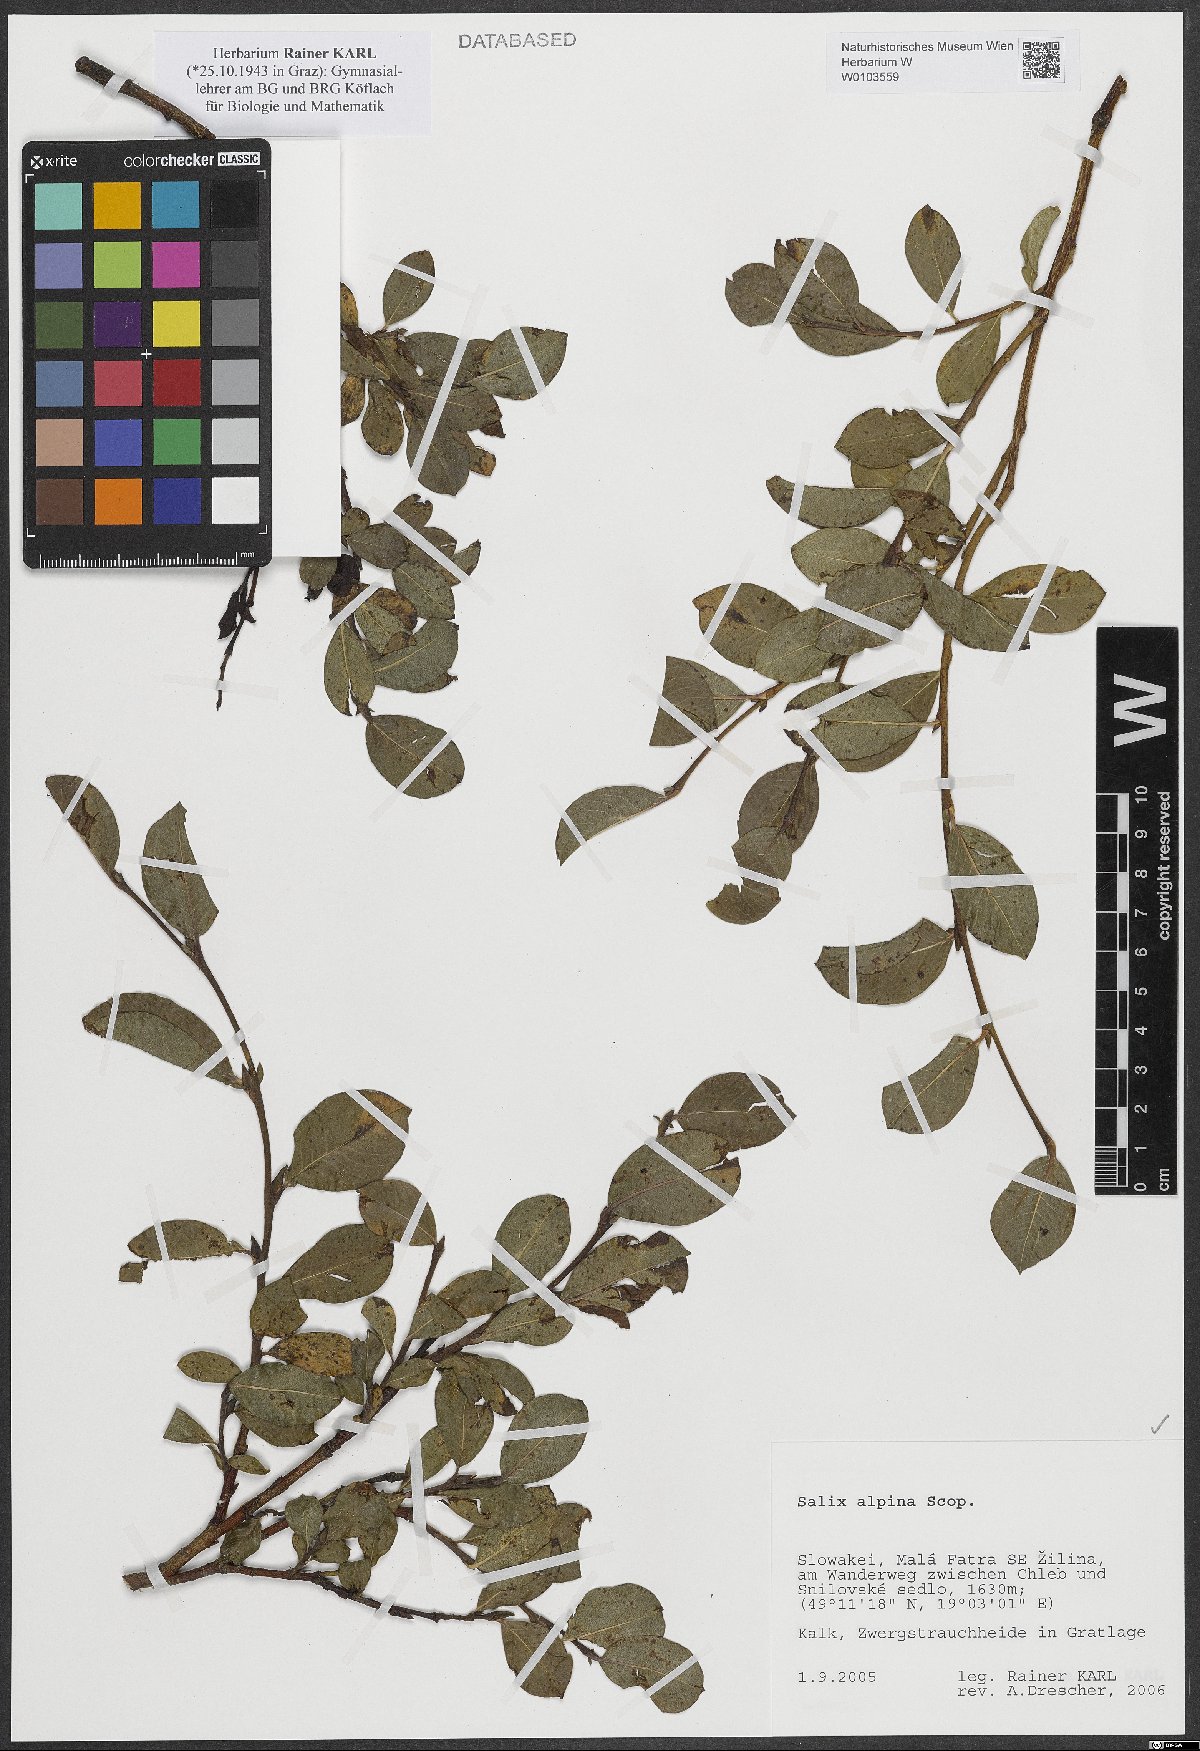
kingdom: Plantae
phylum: Tracheophyta
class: Magnoliopsida
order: Malpighiales
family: Salicaceae
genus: Salix
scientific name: Salix alpina
